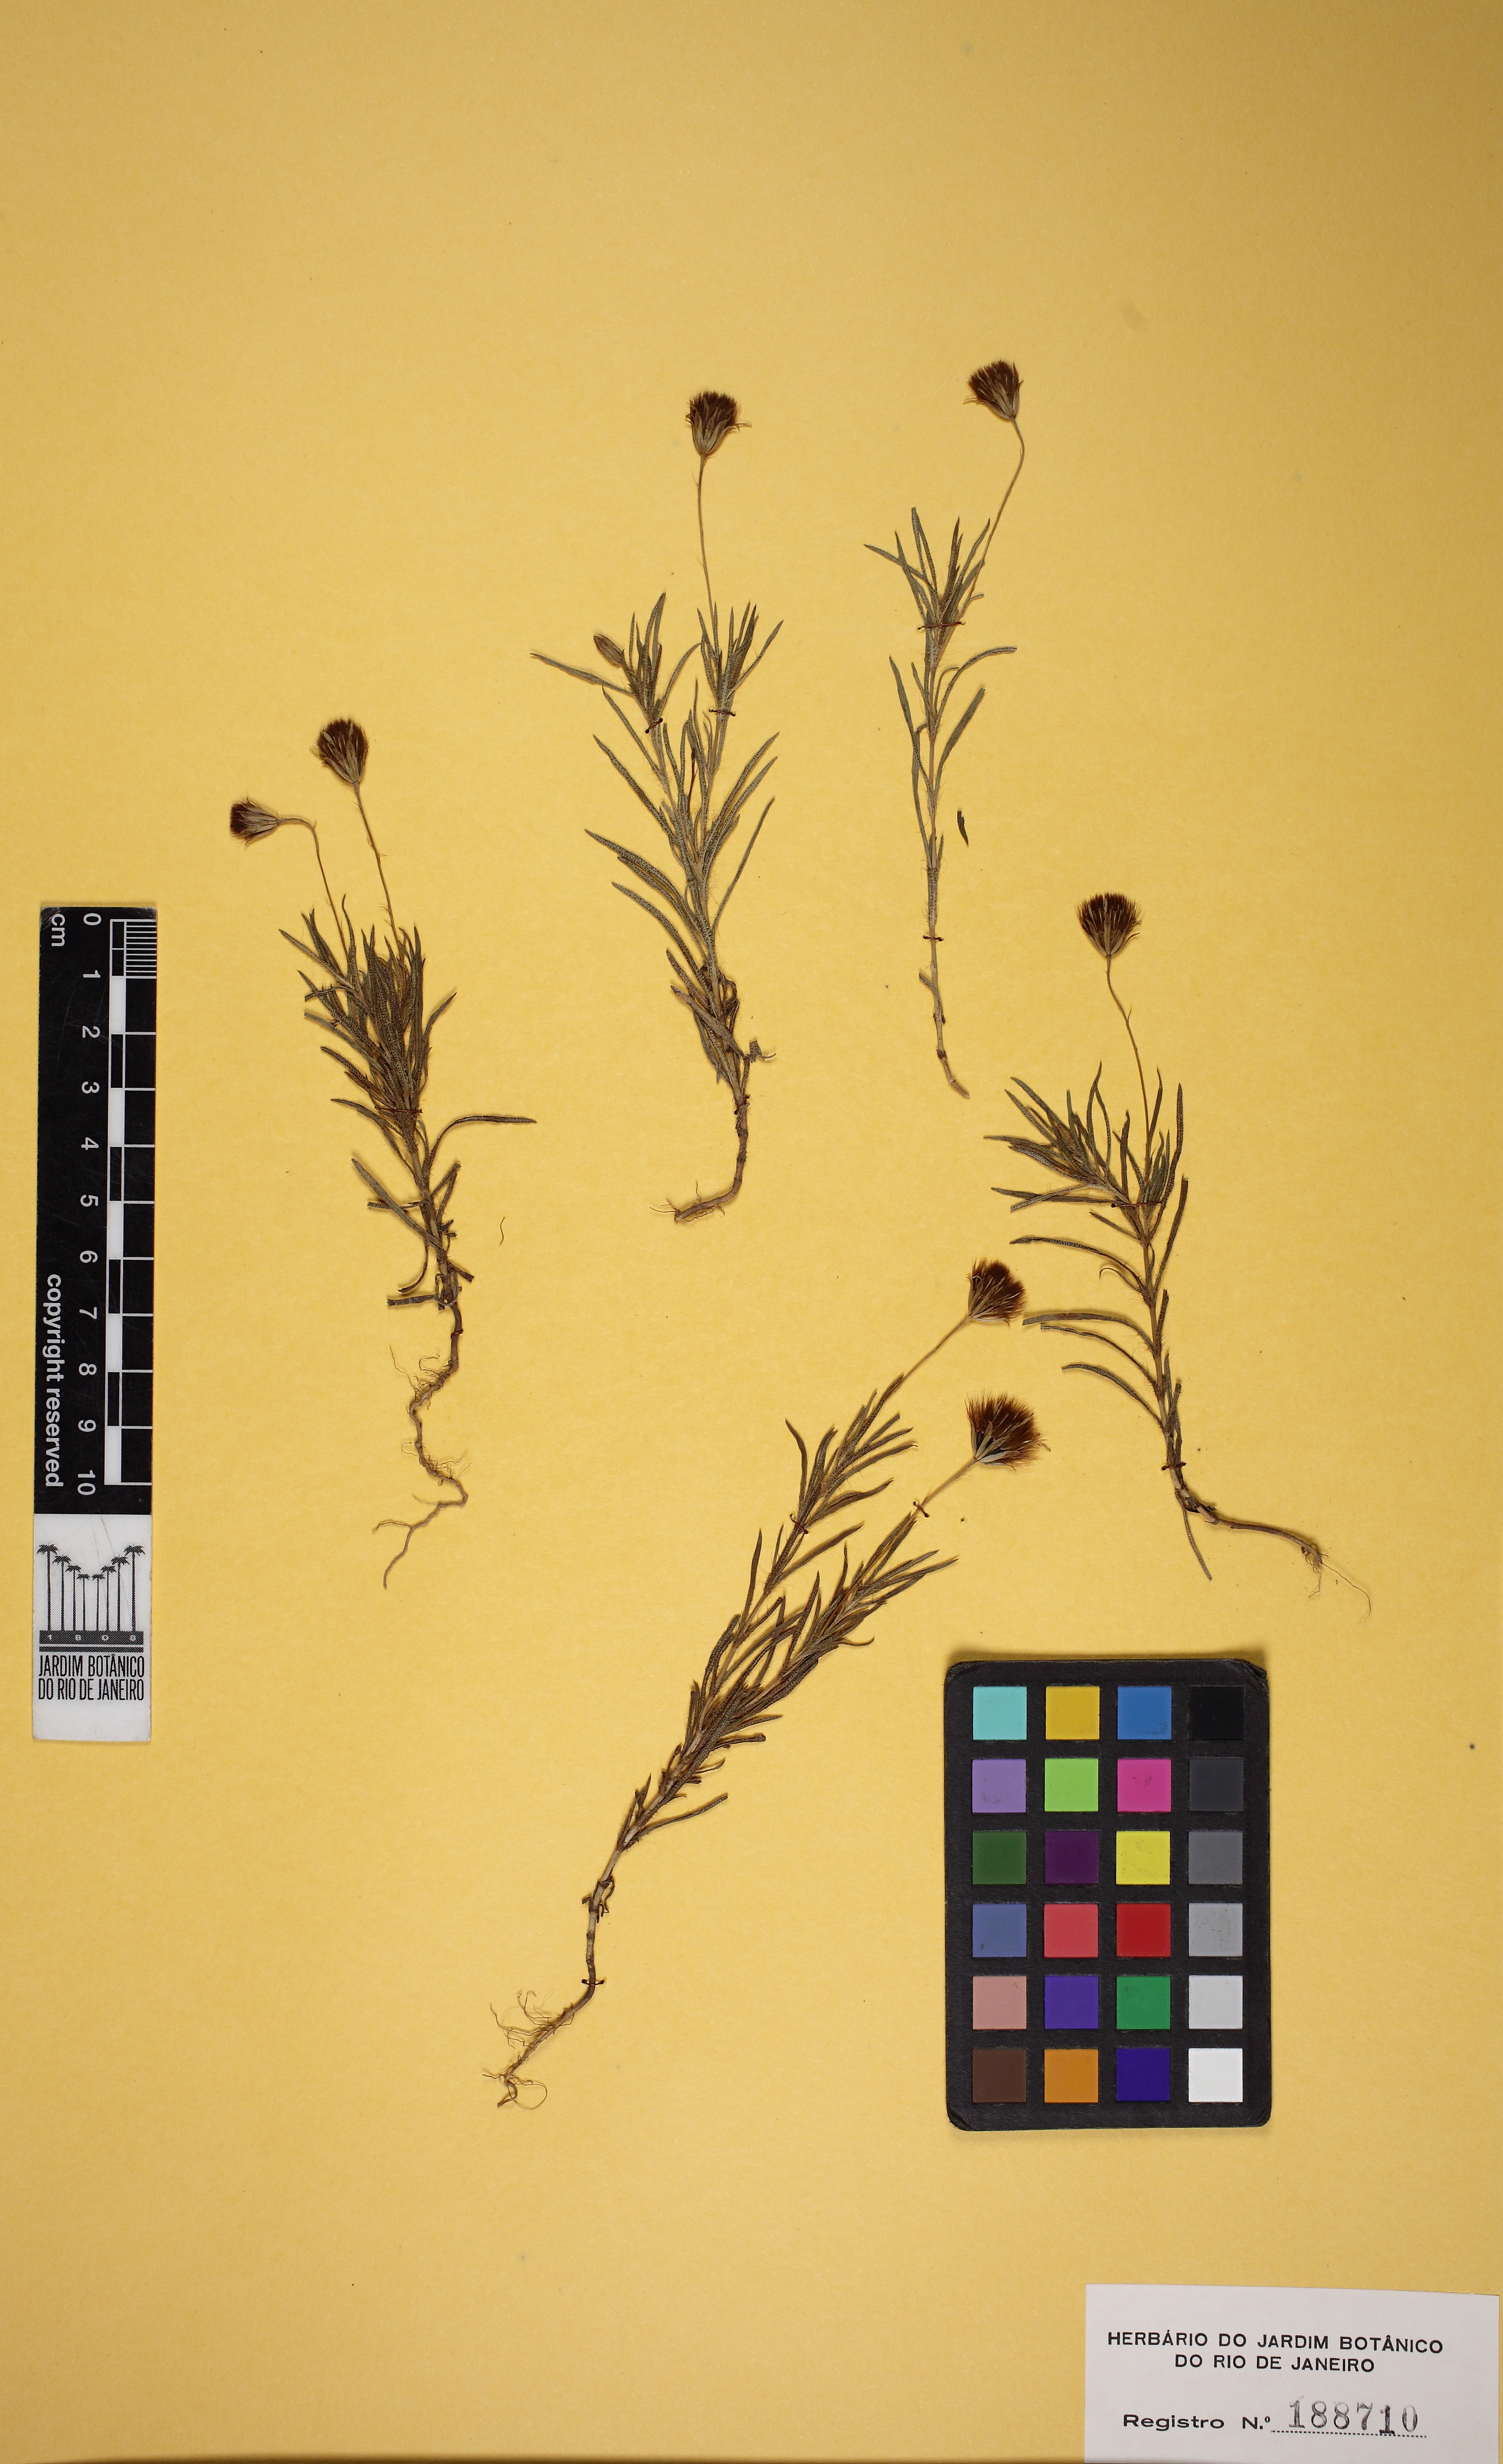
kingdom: Plantae
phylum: Tracheophyta
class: Magnoliopsida
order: Asterales
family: Asteraceae
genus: Pectis
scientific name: Pectis odorata
